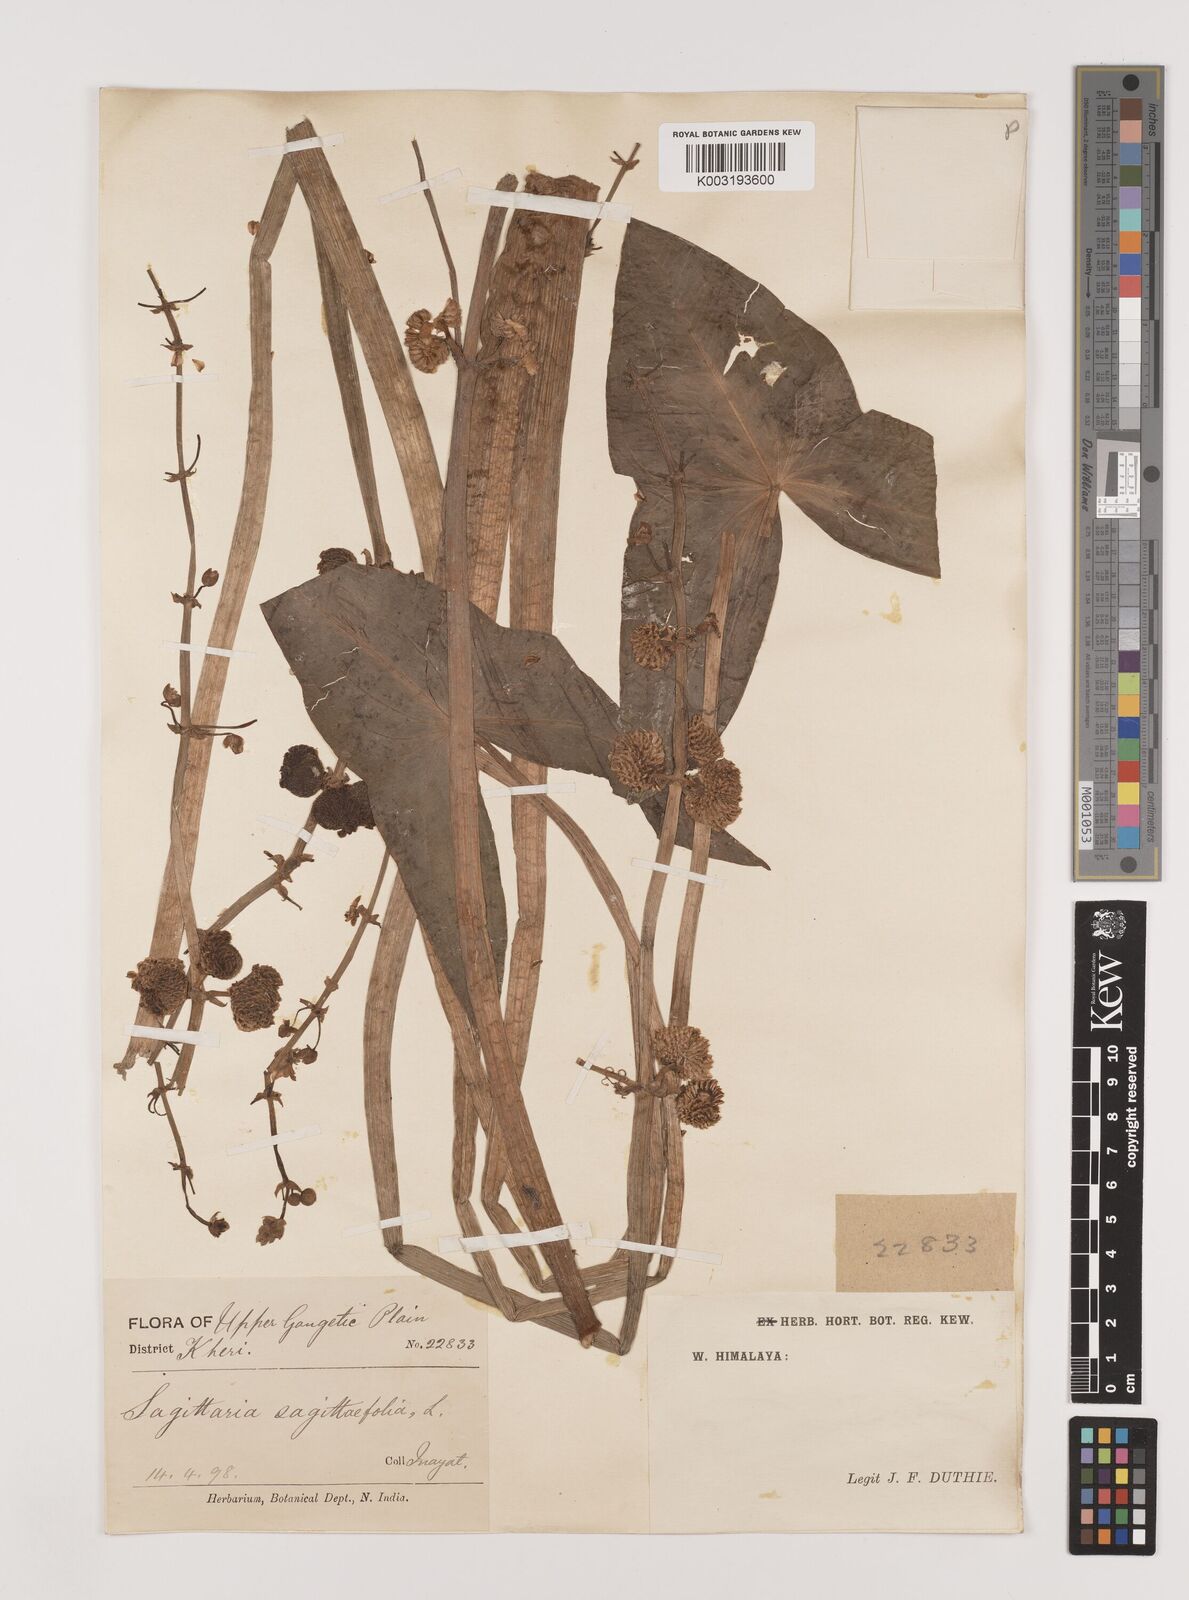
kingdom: Plantae
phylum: Tracheophyta
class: Liliopsida
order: Alismatales
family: Alismataceae
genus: Sagittaria
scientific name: Sagittaria sagittifolia
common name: Arrowhead
